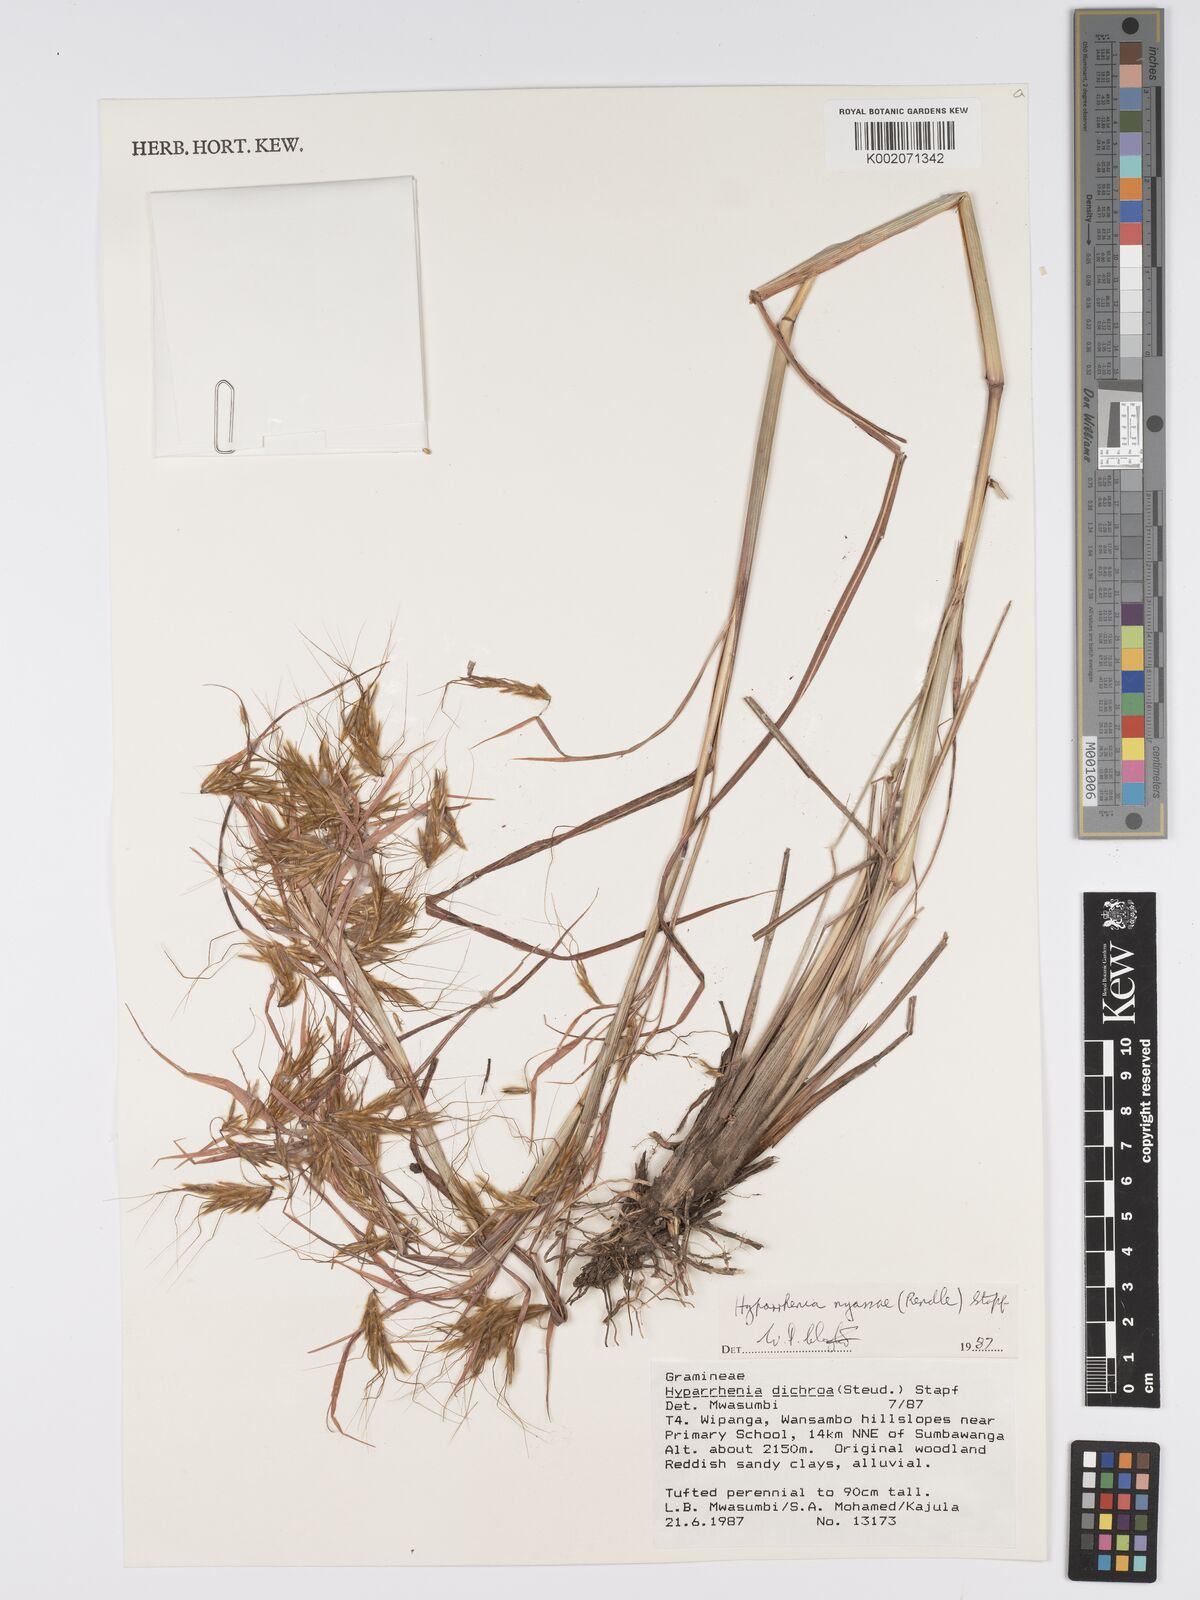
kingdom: Plantae
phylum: Tracheophyta
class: Liliopsida
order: Poales
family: Poaceae
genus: Hyparrhenia
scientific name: Hyparrhenia nyassae
